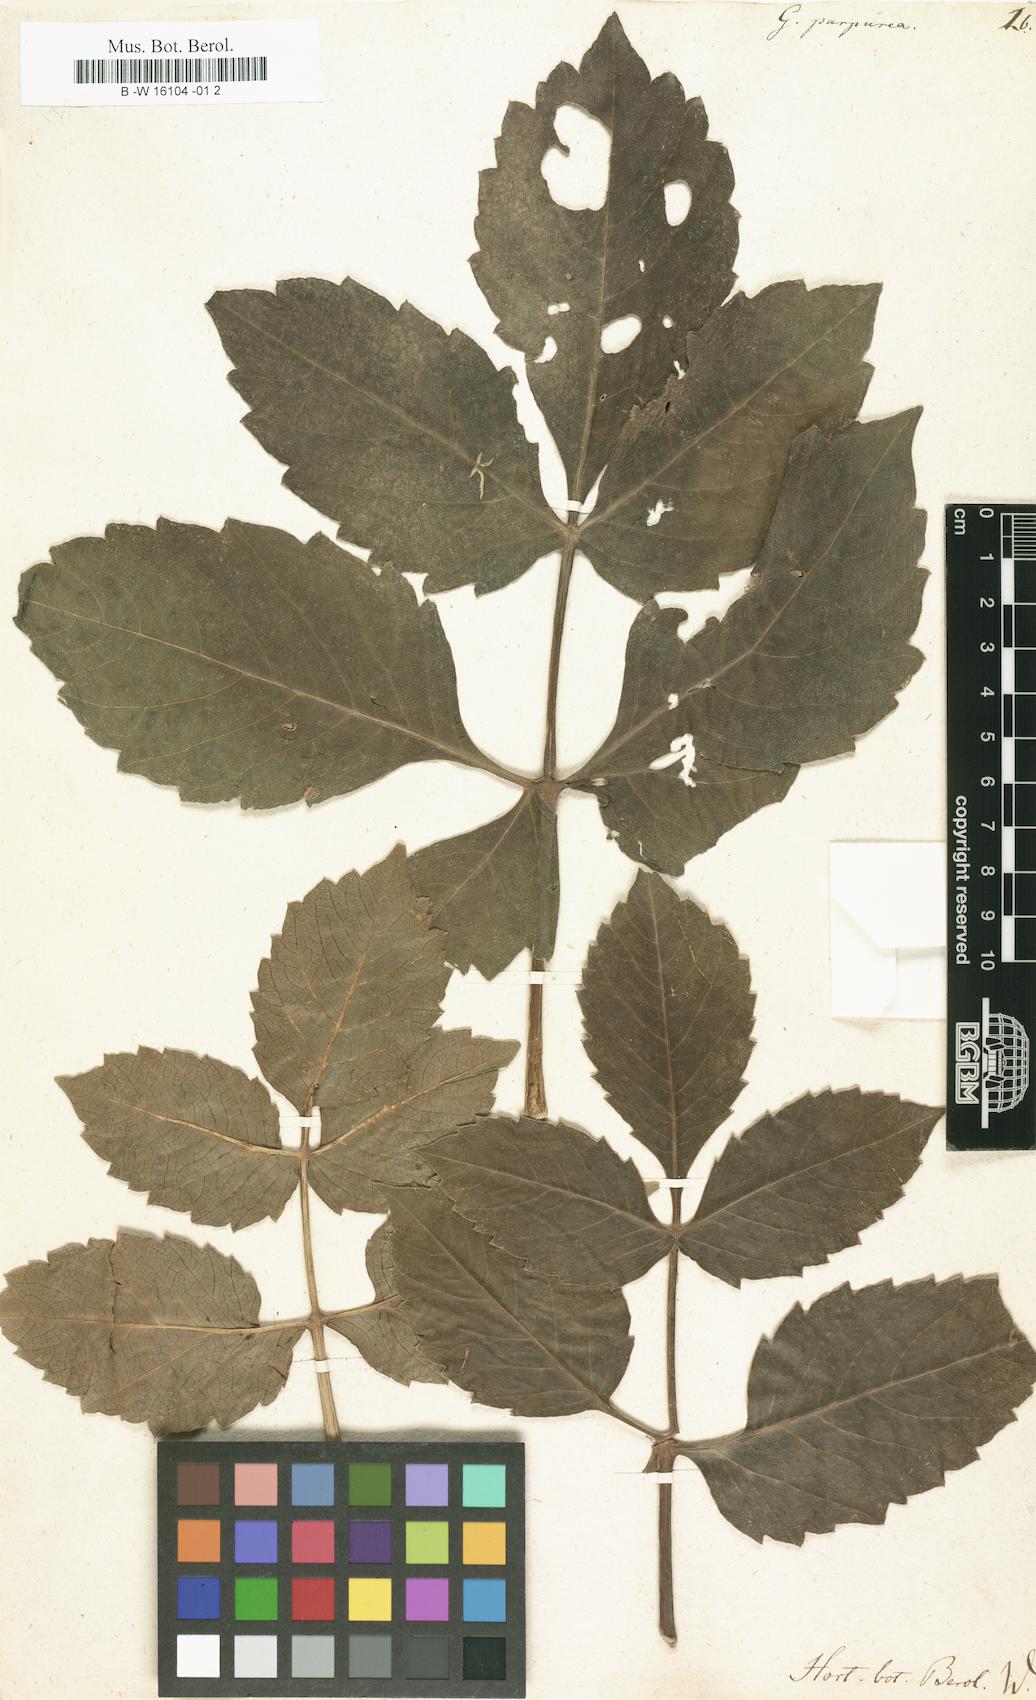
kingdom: Plantae
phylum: Tracheophyta
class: Magnoliopsida
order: Asterales
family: Asteraceae
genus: Dahlia
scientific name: Dahlia pinnata
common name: Dahlia
